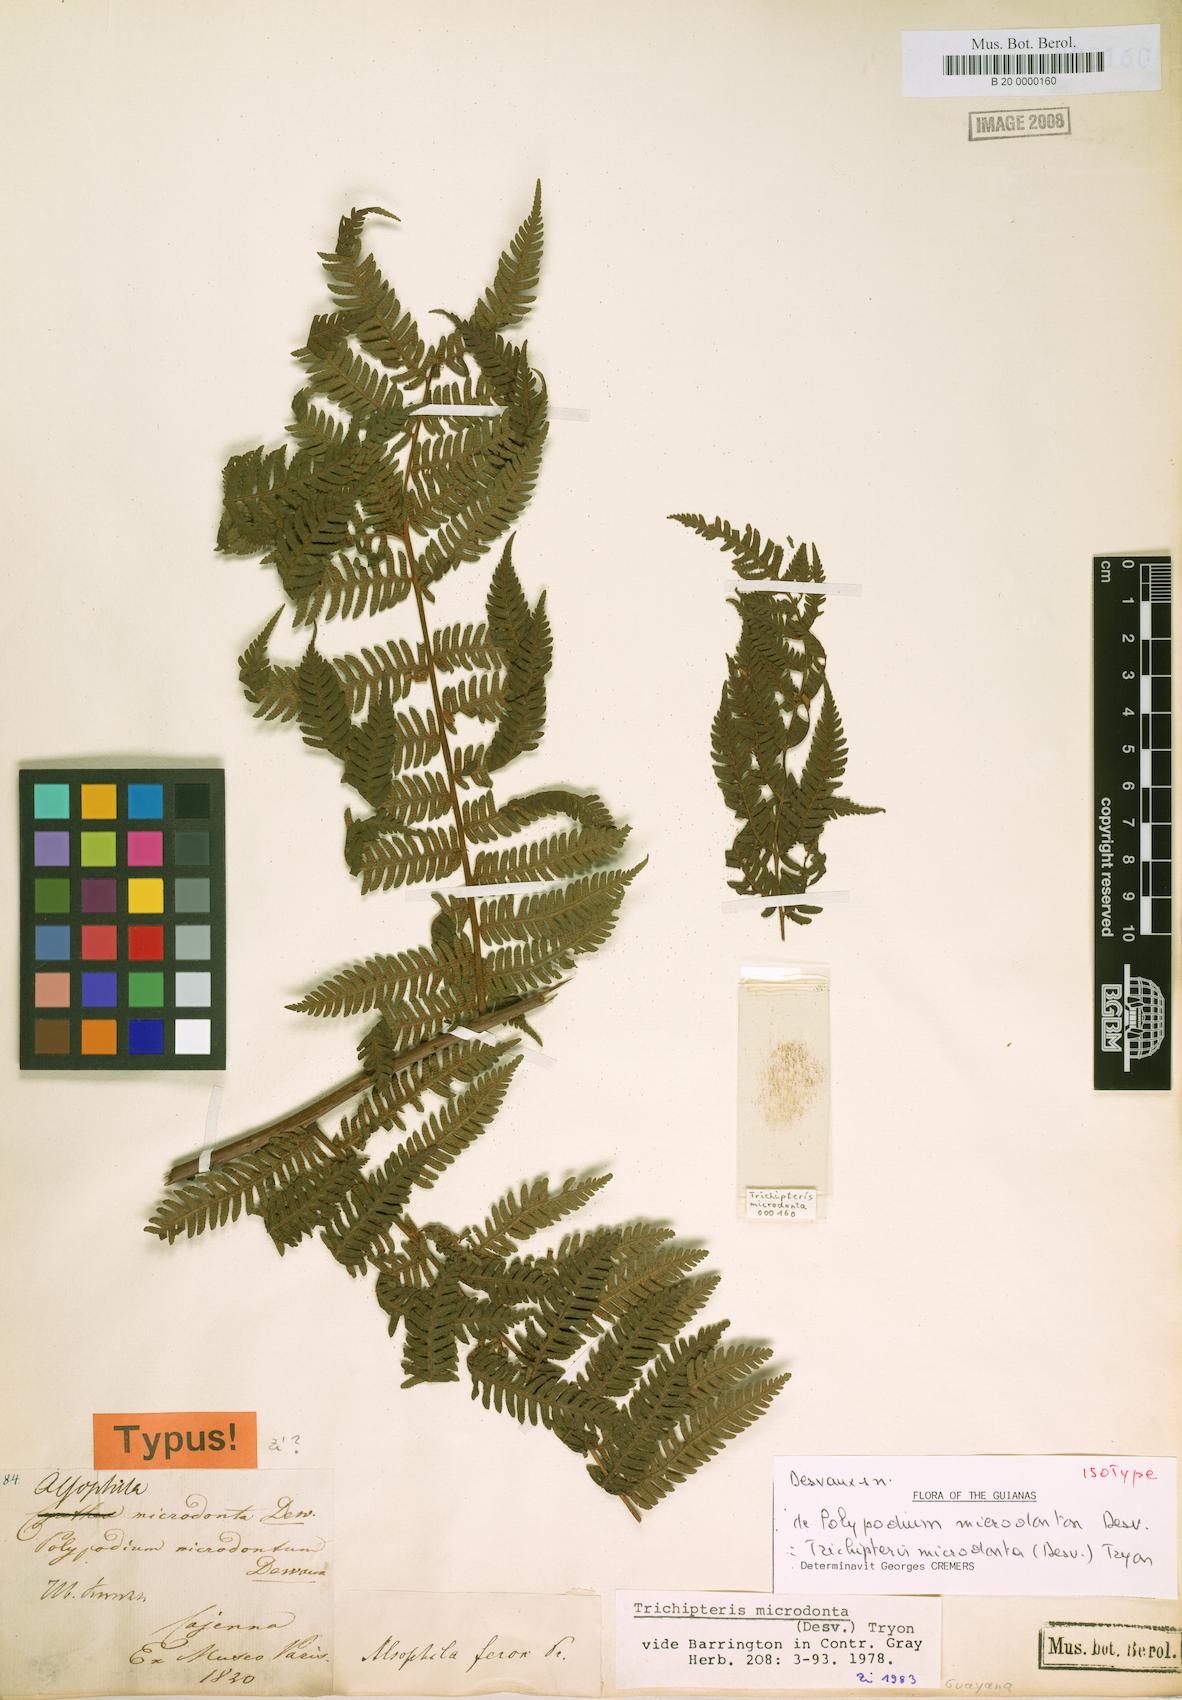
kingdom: Plantae
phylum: Tracheophyta
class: Polypodiopsida
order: Cyatheales
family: Cyatheaceae
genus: Cyathea
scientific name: Cyathea microdonta
